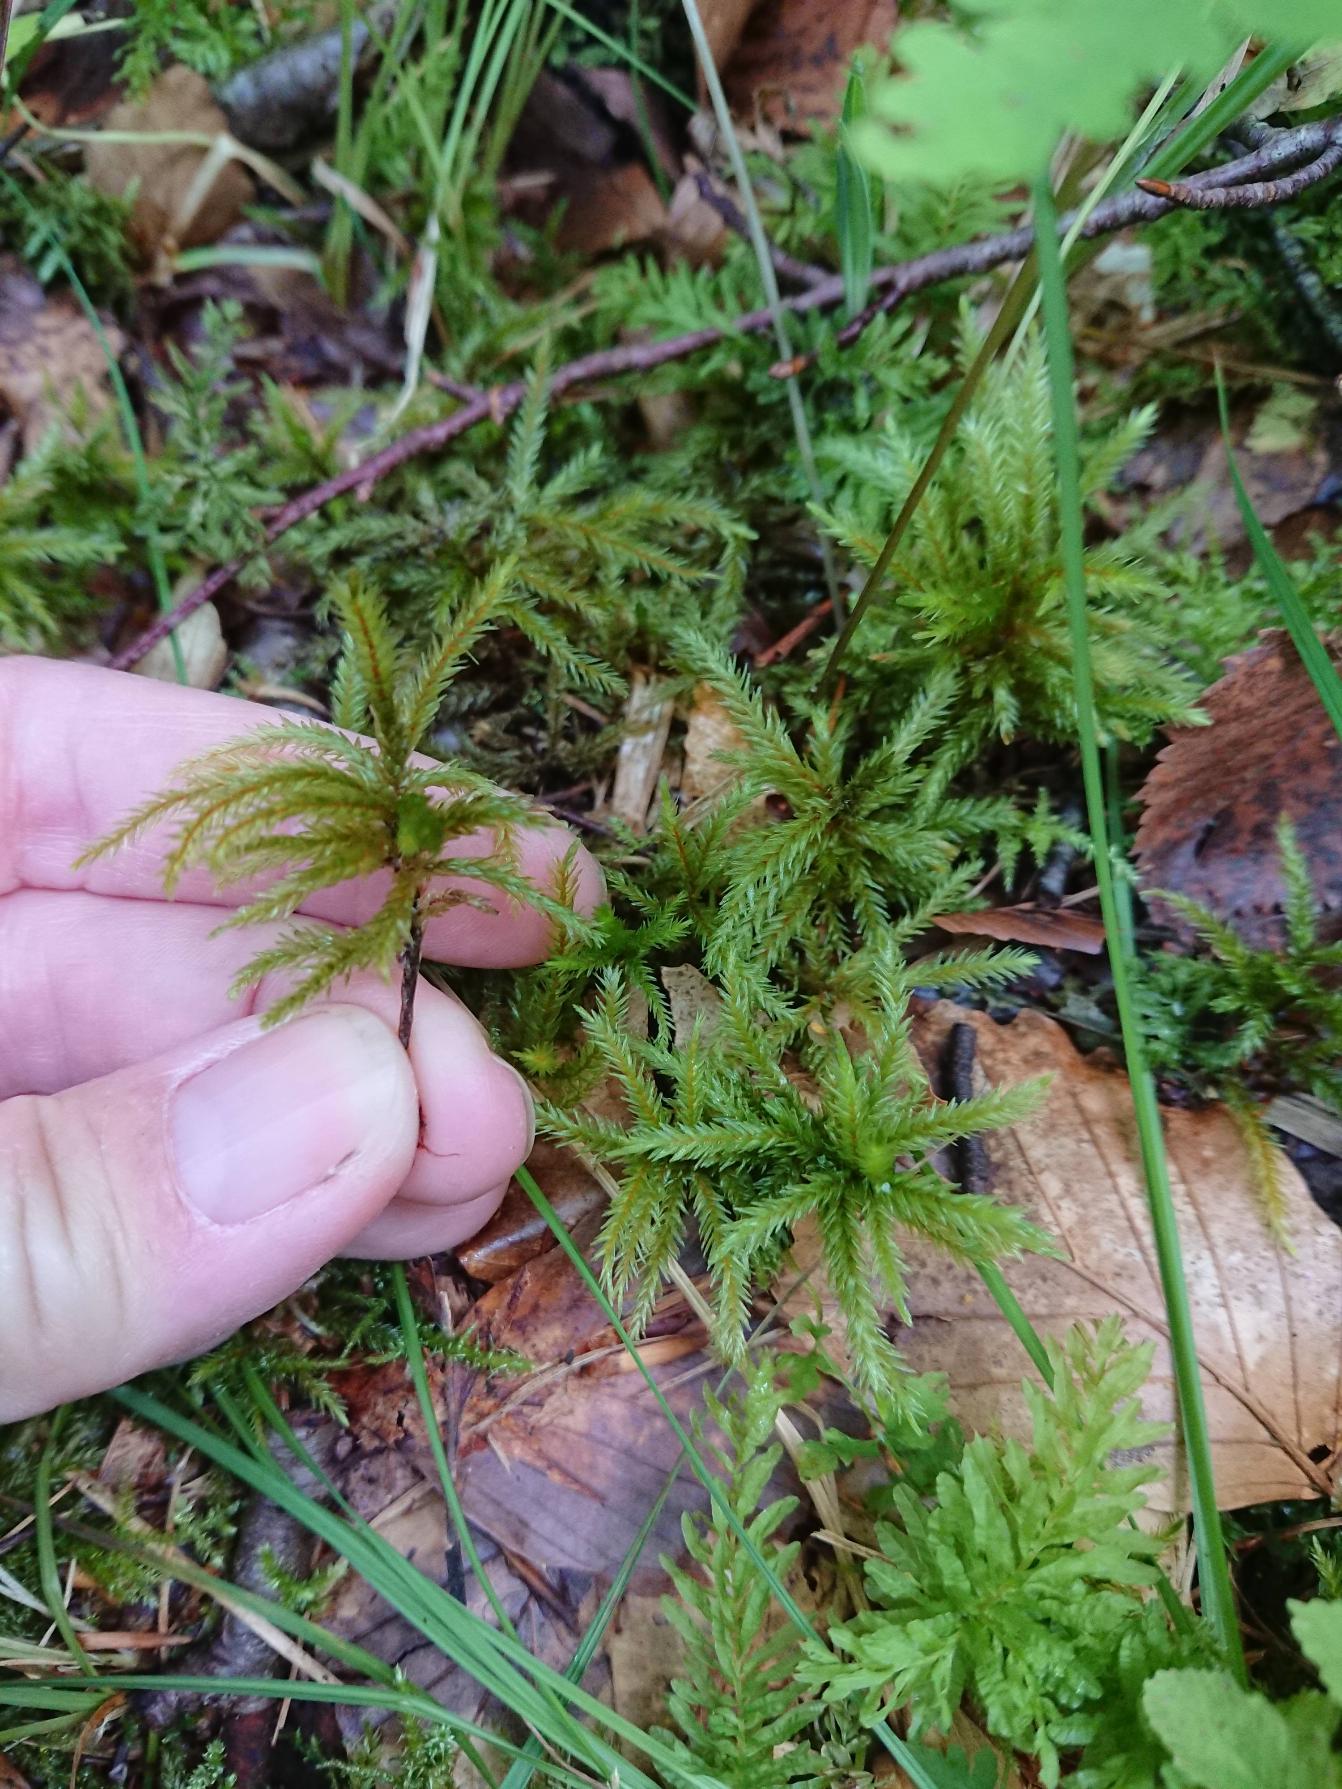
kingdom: Plantae
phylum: Bryophyta
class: Bryopsida
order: Hypnales
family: Climaciaceae
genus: Climacium
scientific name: Climacium dendroides
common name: Stor engkost
